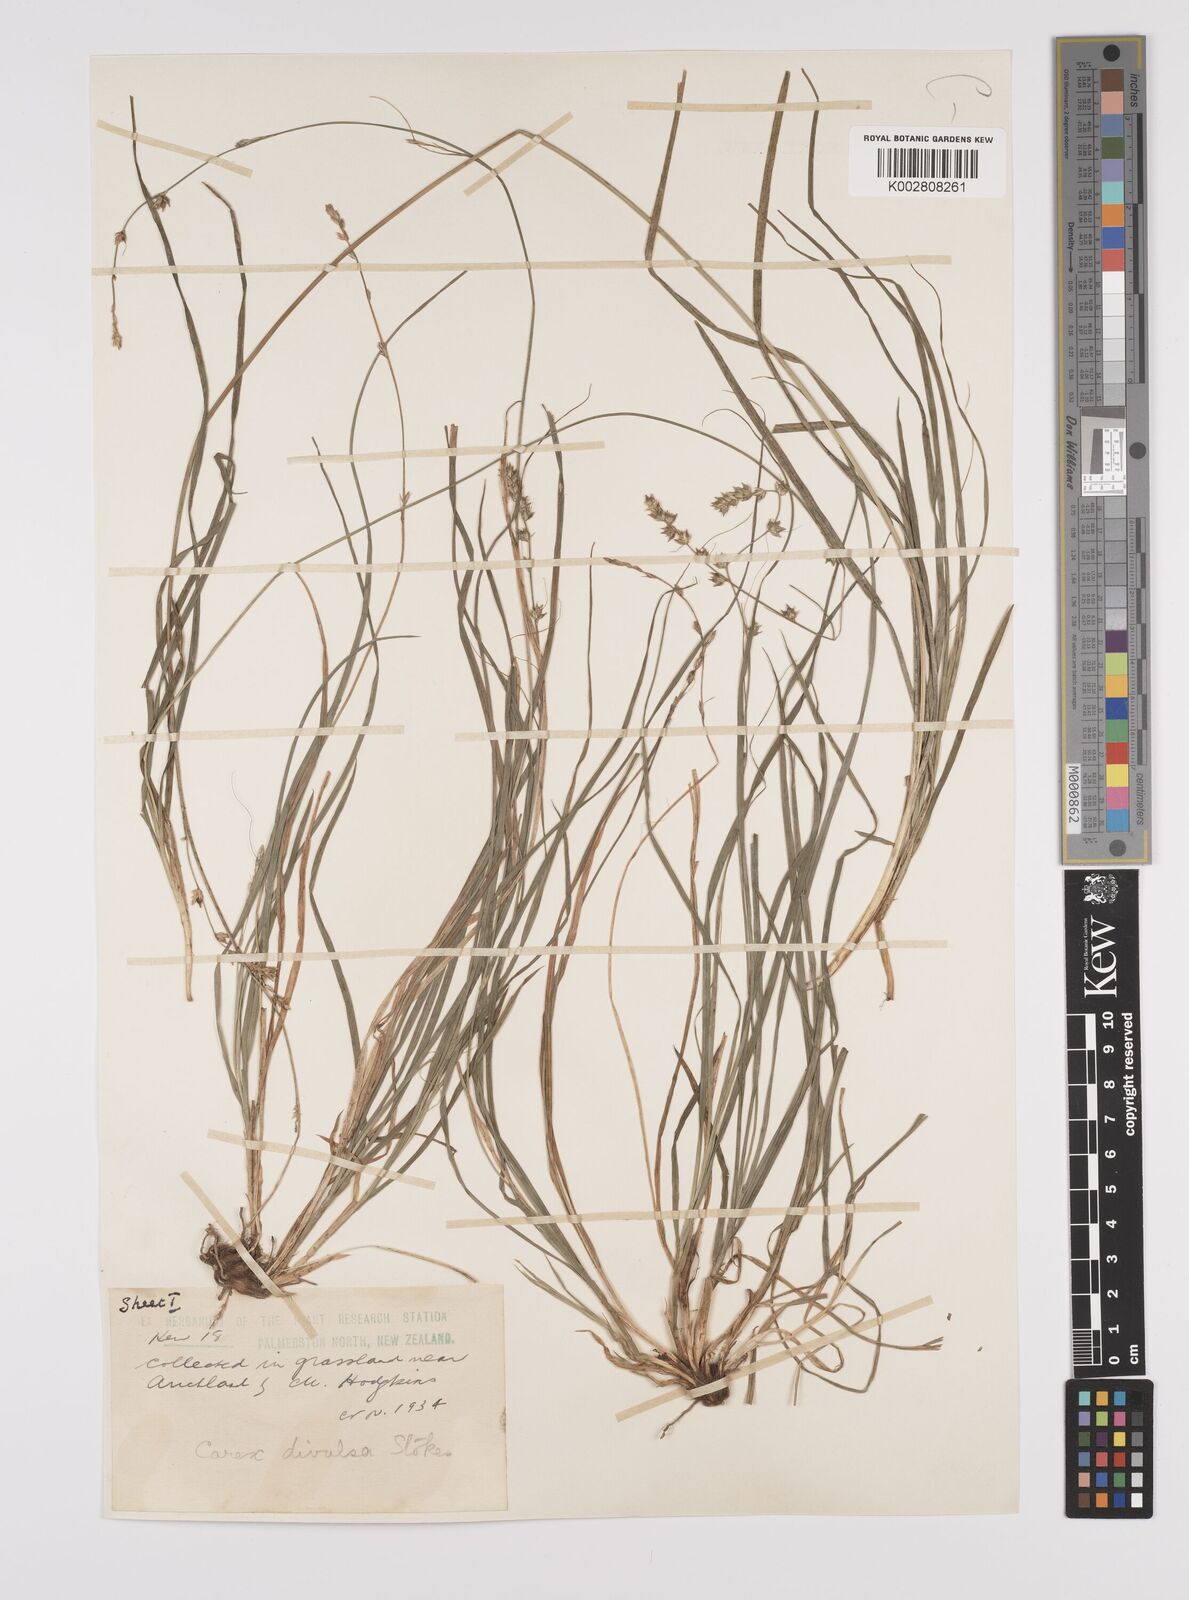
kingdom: Plantae
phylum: Tracheophyta
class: Liliopsida
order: Poales
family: Cyperaceae
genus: Carex
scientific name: Carex divulsa
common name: Grassland sedge
